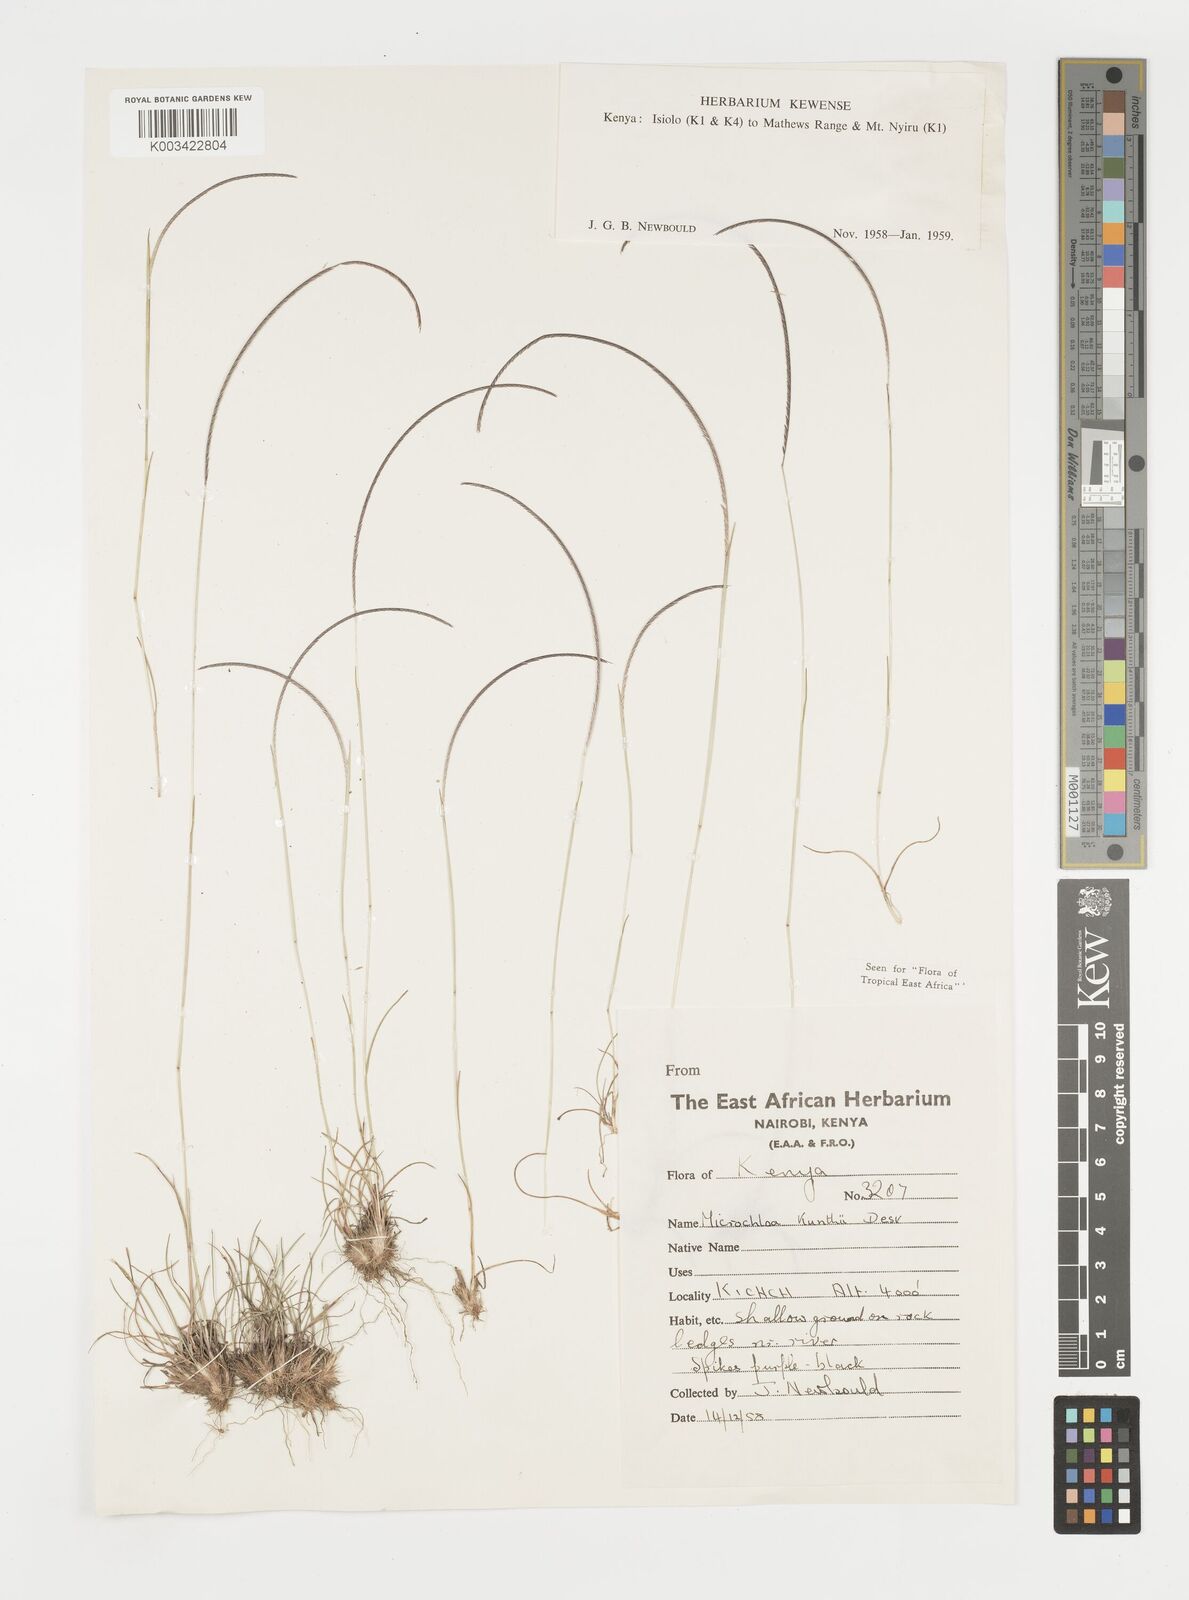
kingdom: Plantae
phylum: Tracheophyta
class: Liliopsida
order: Poales
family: Poaceae
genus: Microchloa
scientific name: Microchloa kunthii
